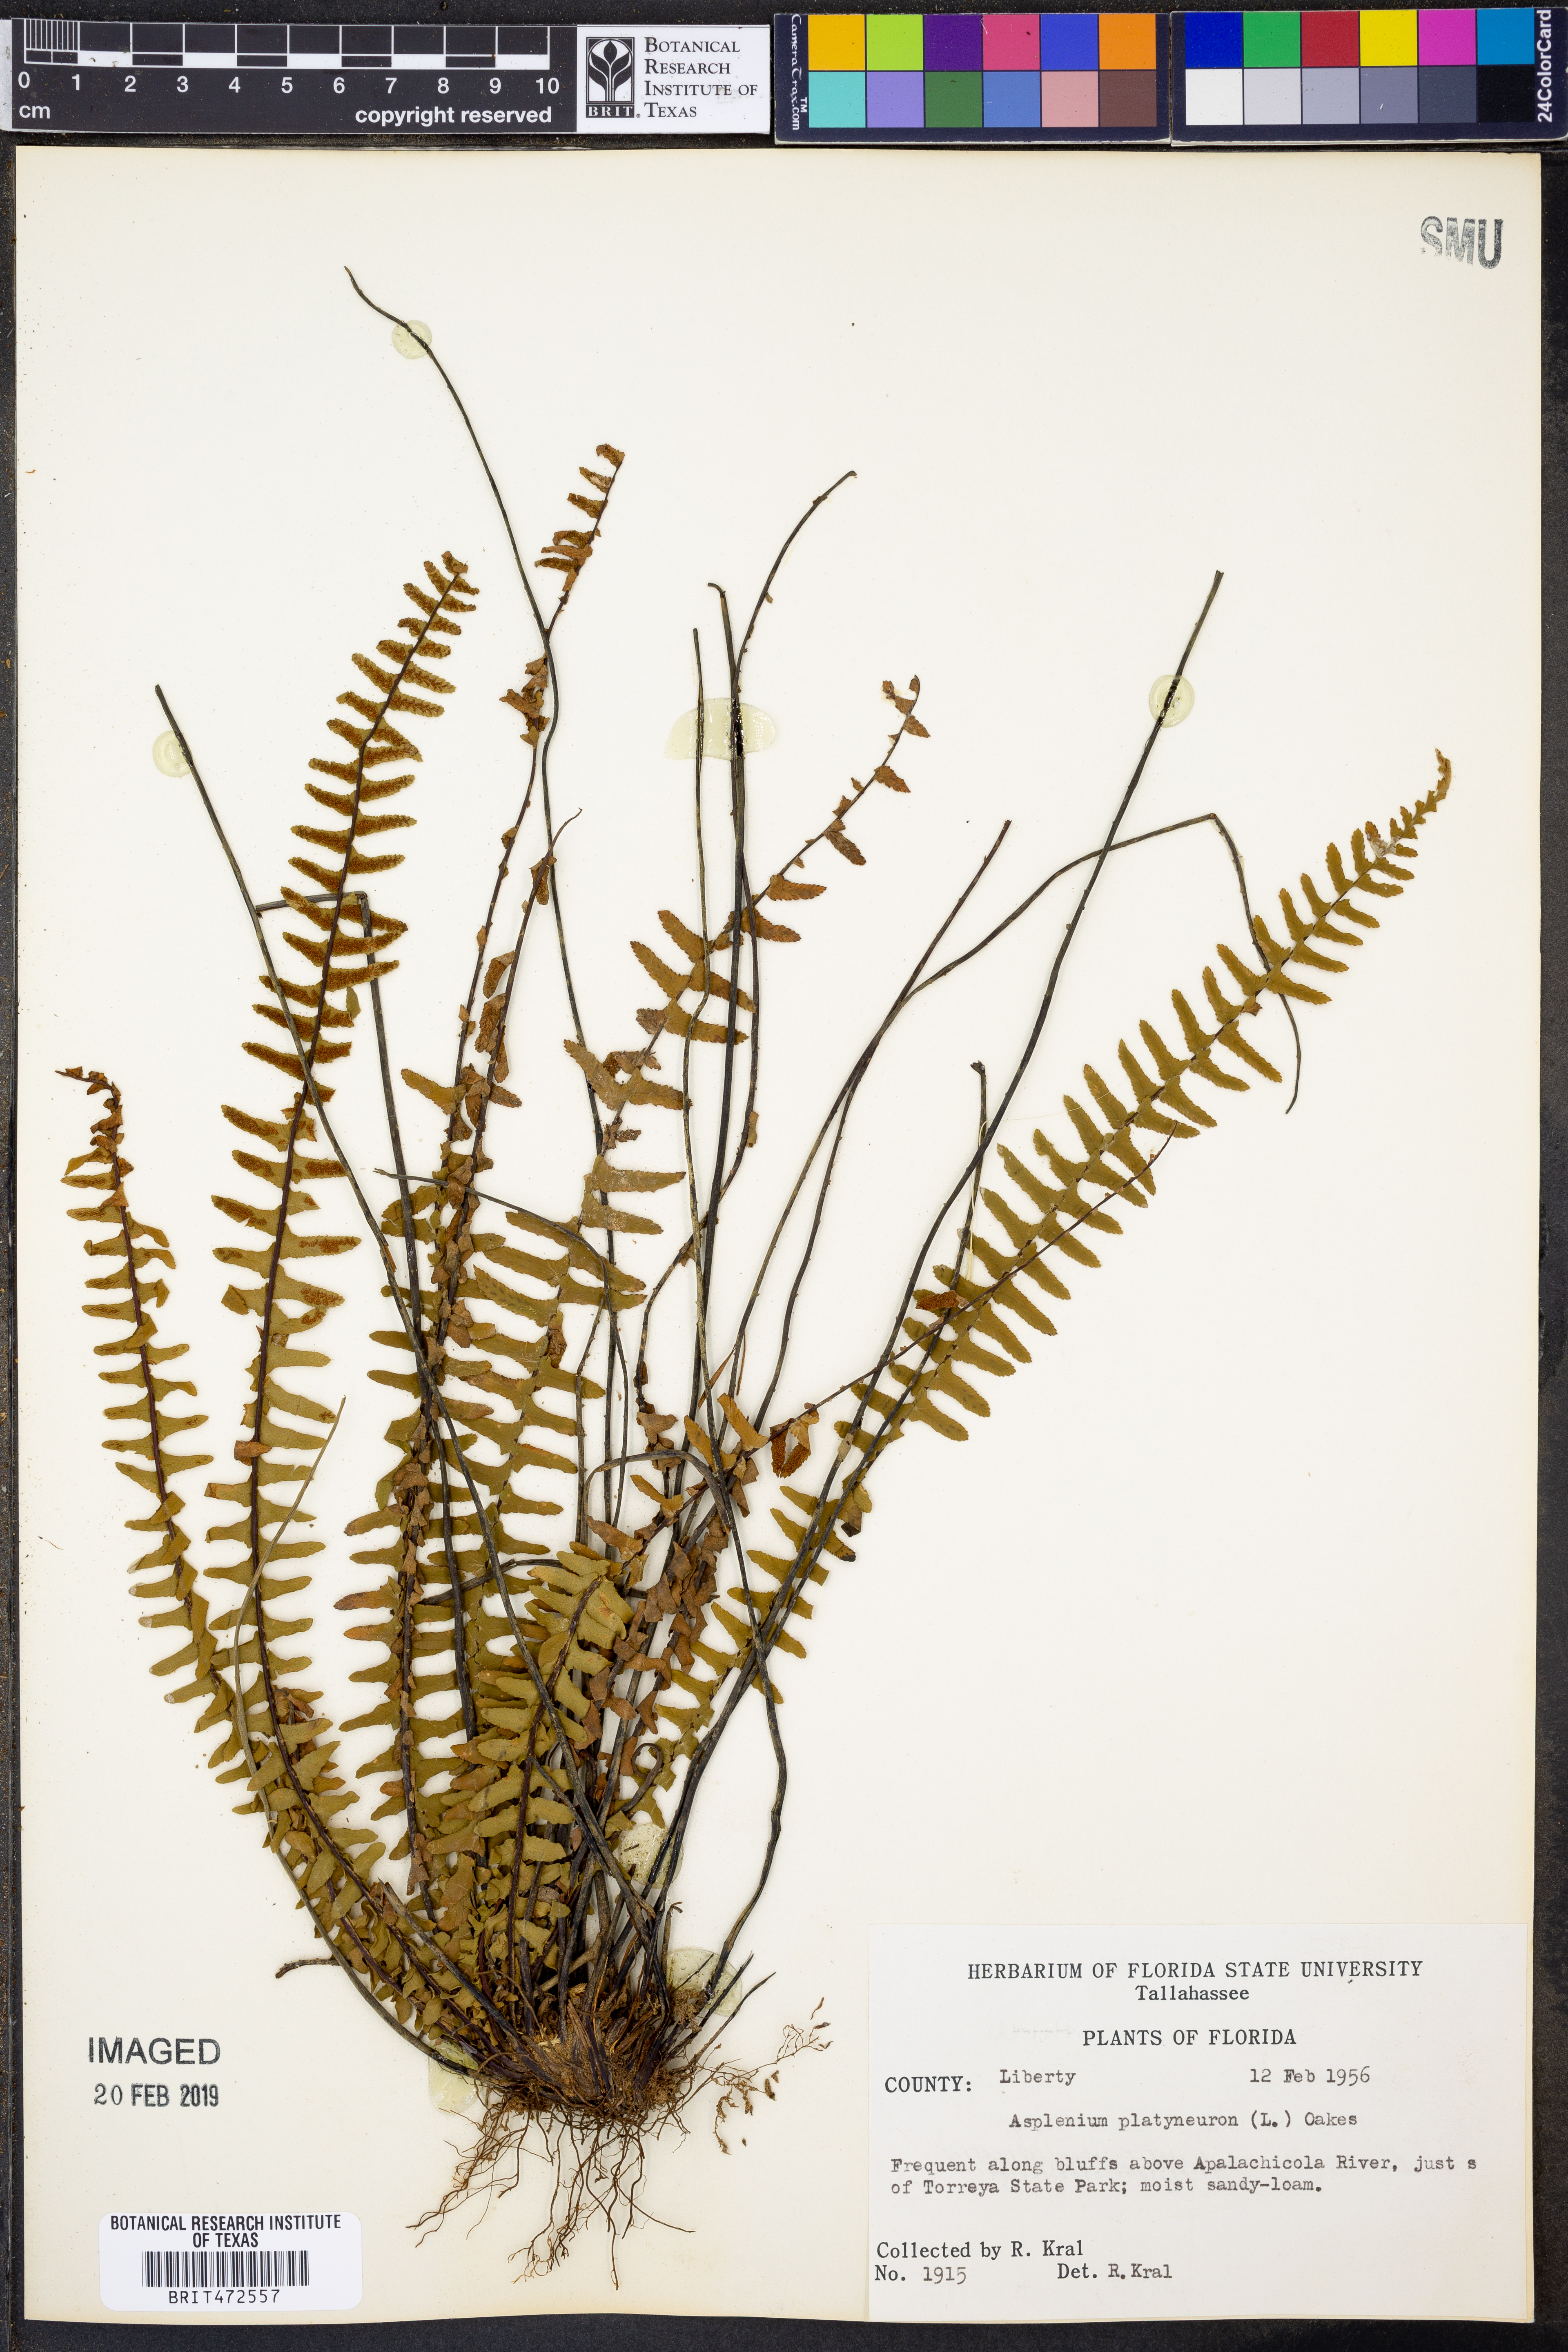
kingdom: Plantae
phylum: Tracheophyta
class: Polypodiopsida
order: Polypodiales
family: Aspleniaceae
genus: Asplenium
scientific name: Asplenium platyneuron
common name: Ebony spleenwort
